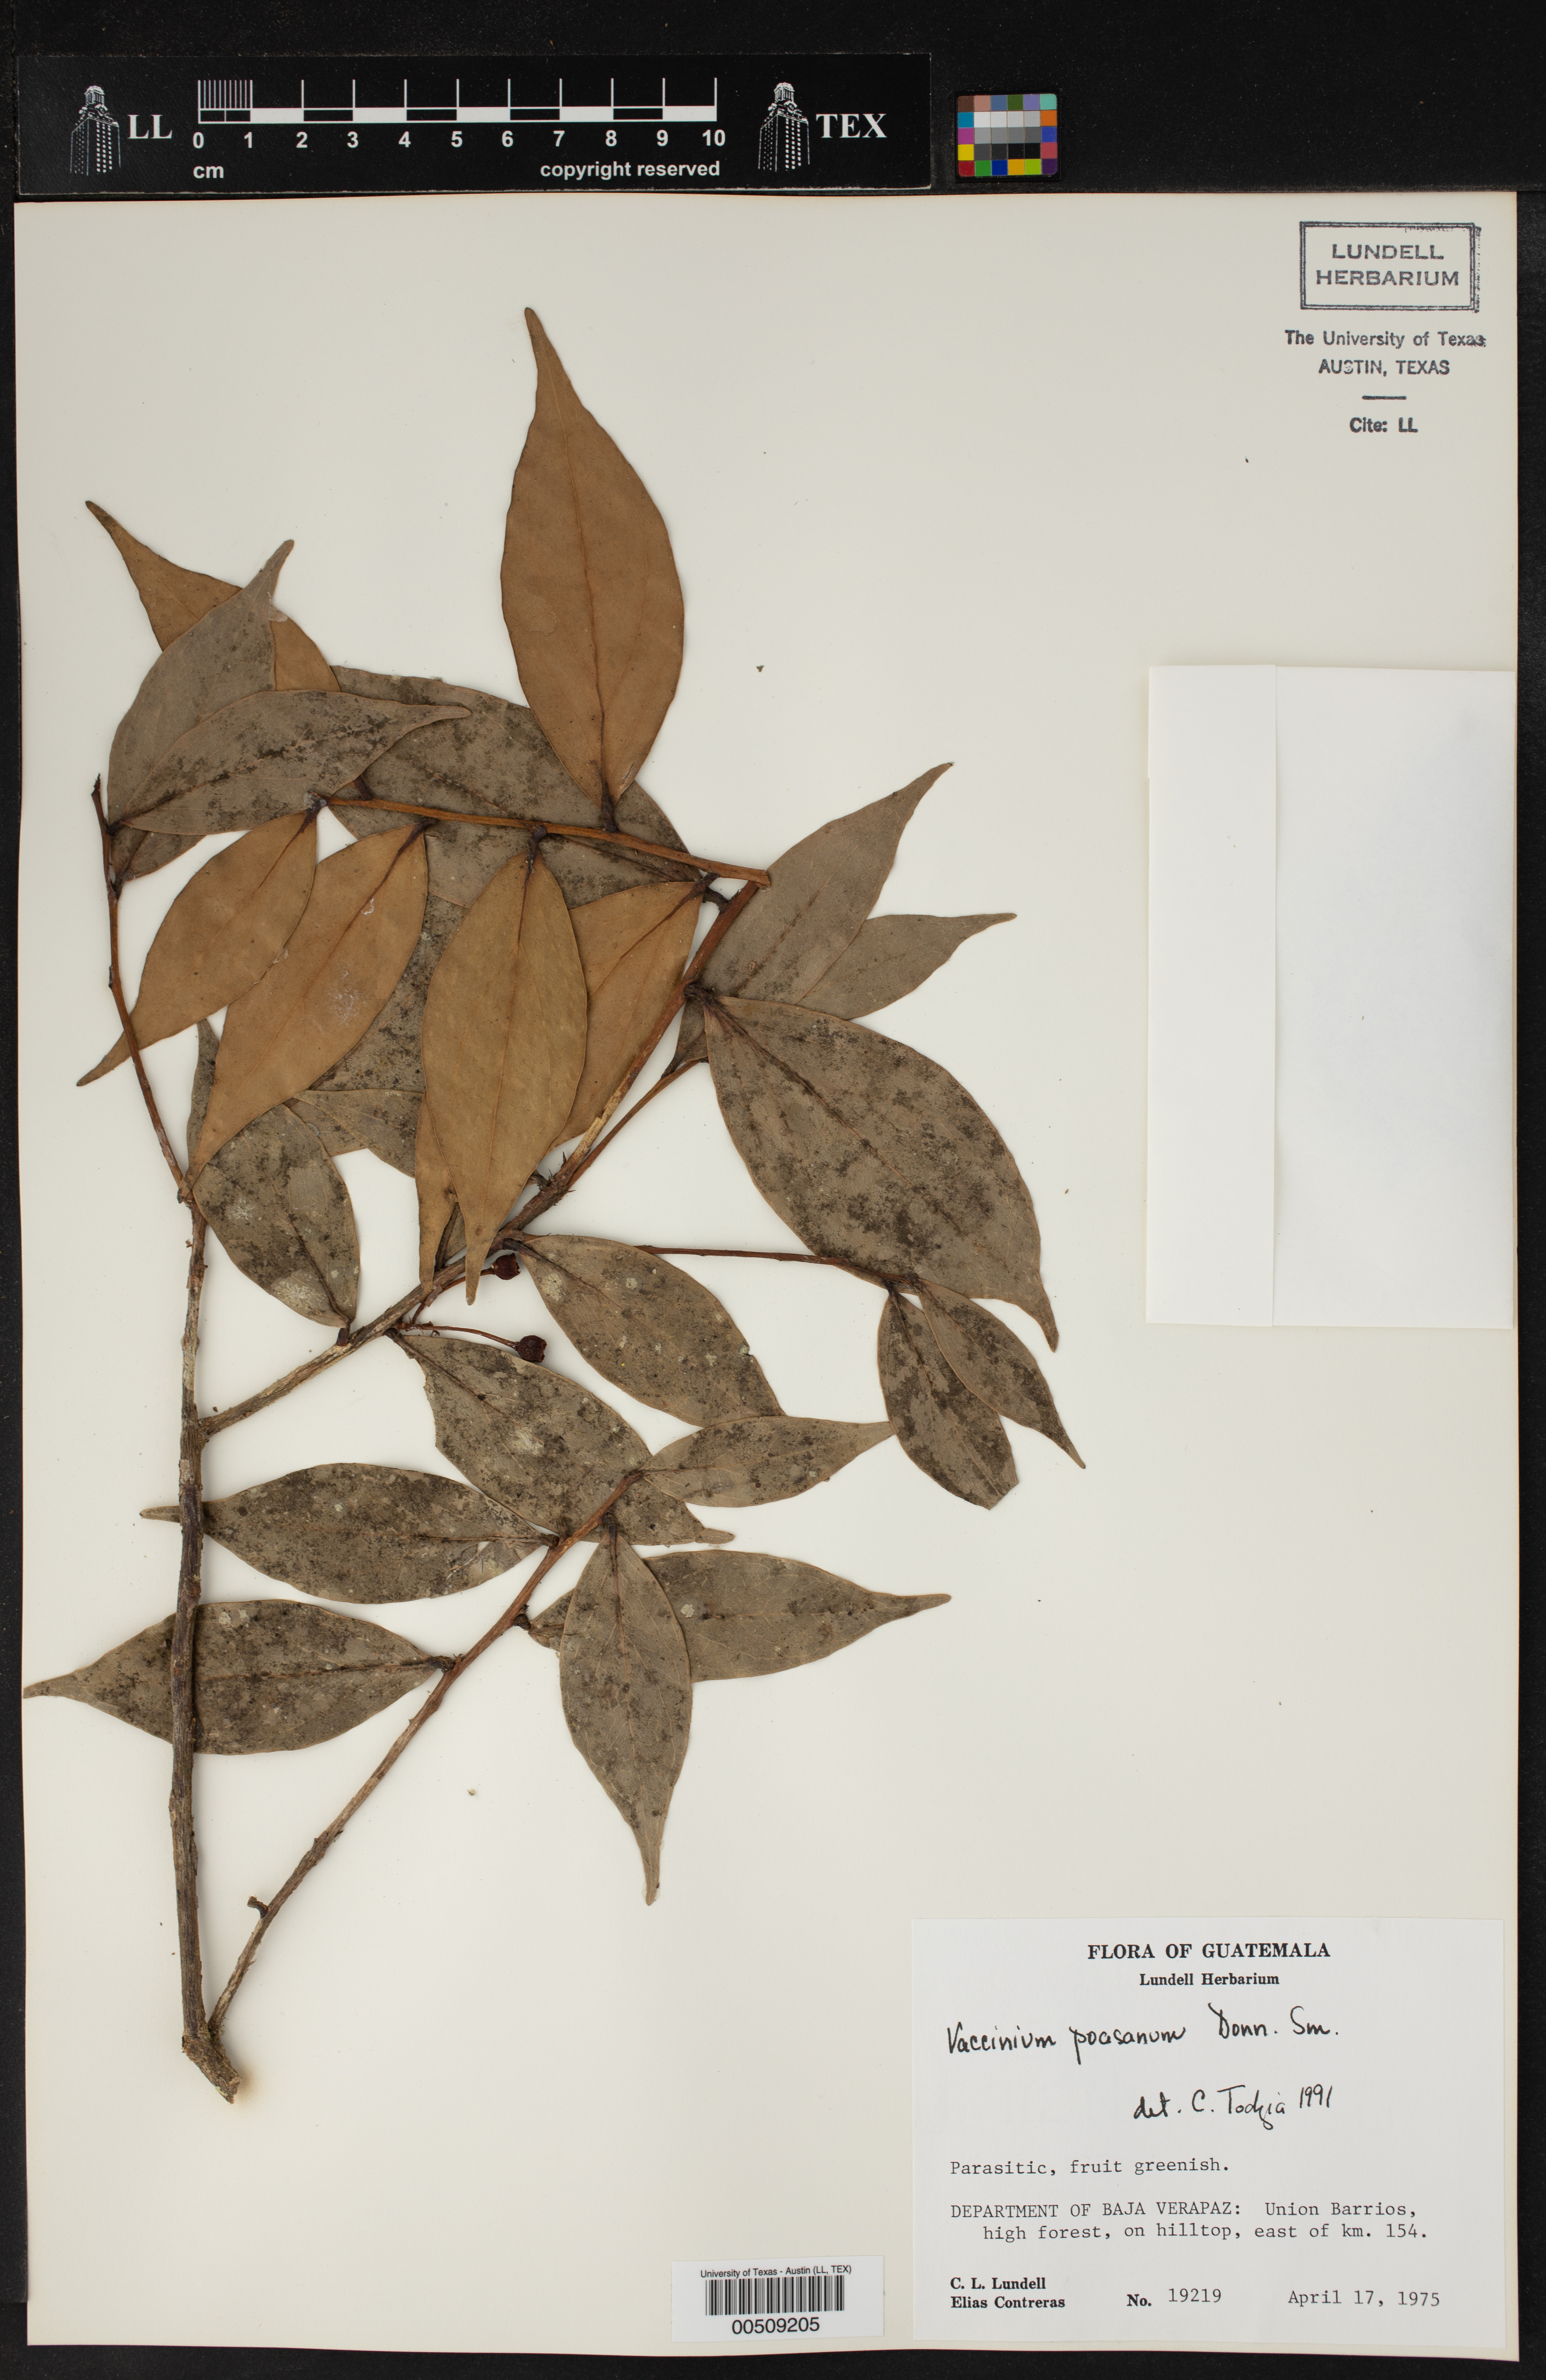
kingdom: Plantae
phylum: Tracheophyta
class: Magnoliopsida
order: Ericales
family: Ericaceae
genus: Symphysia
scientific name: Symphysia poasana
